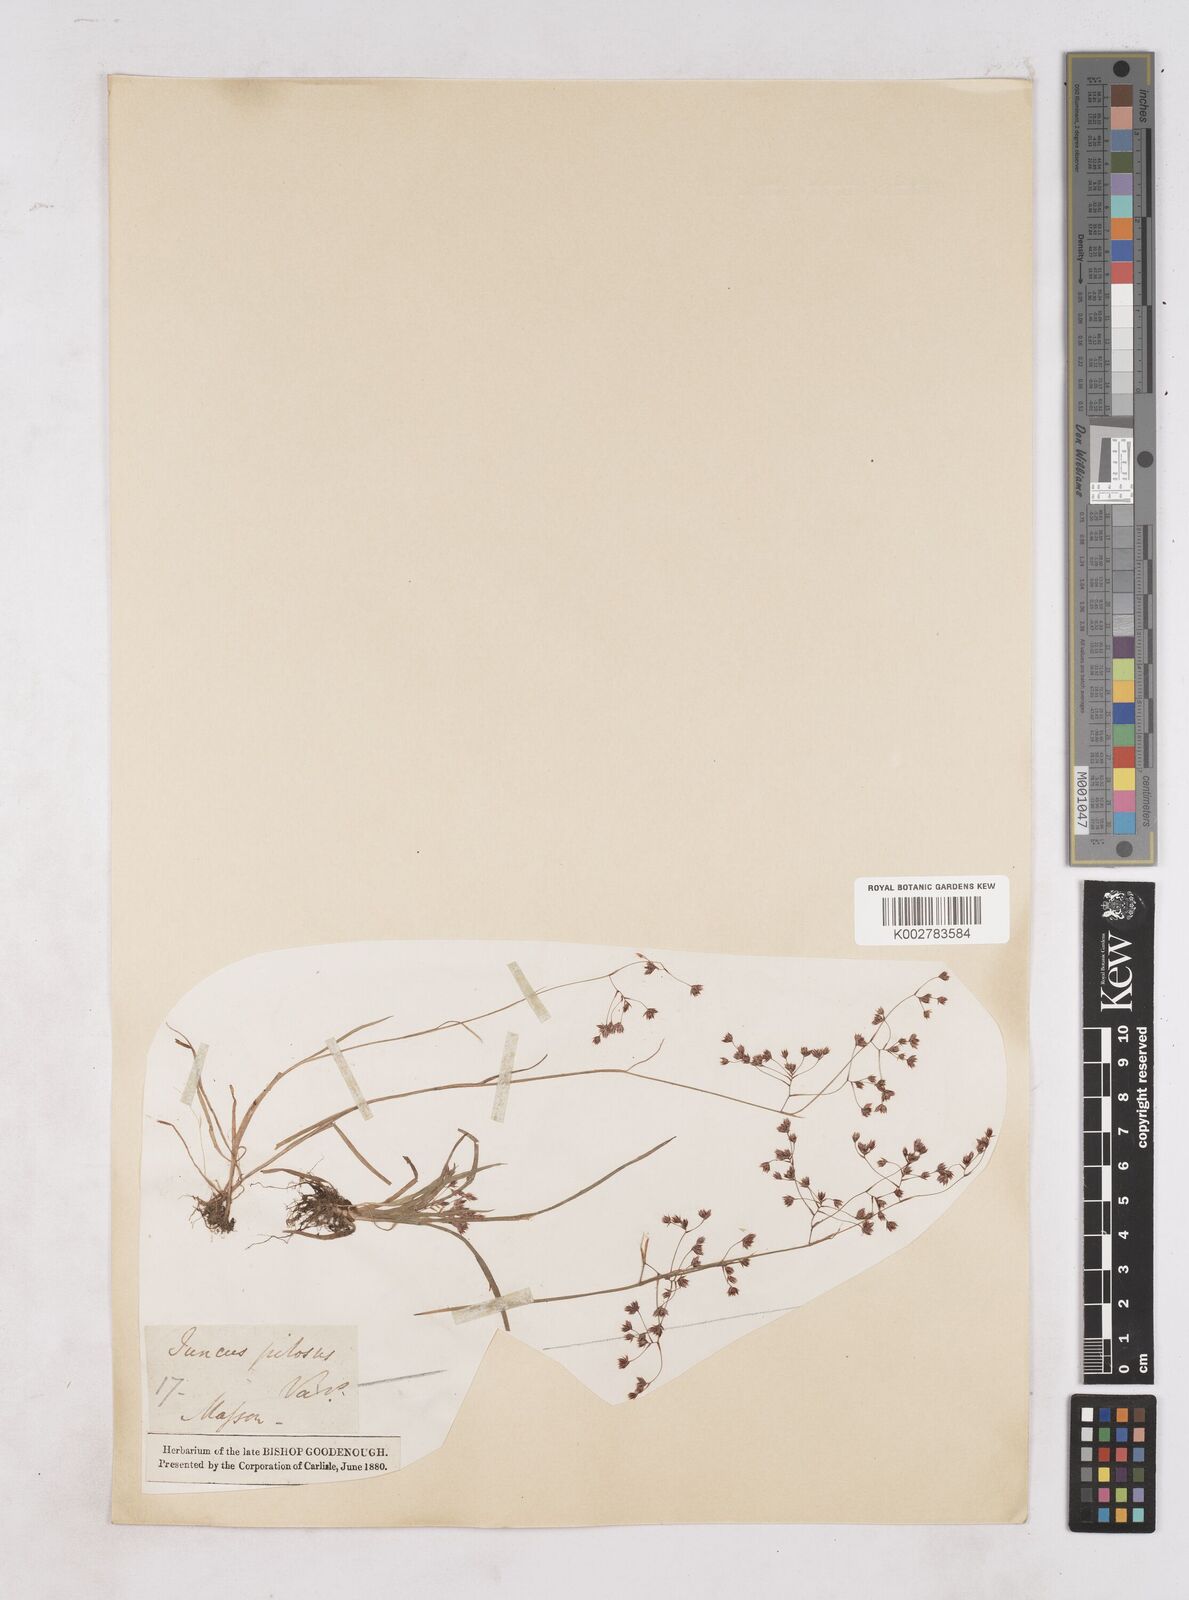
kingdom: Plantae
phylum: Tracheophyta
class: Liliopsida
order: Poales
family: Juncaceae
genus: Luzula
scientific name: Luzula
